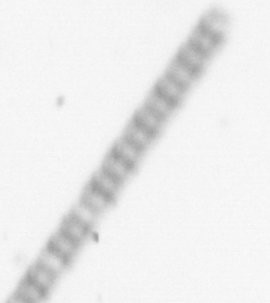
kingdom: Chromista
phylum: Ochrophyta
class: Bacillariophyceae
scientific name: Bacillariophyceae
